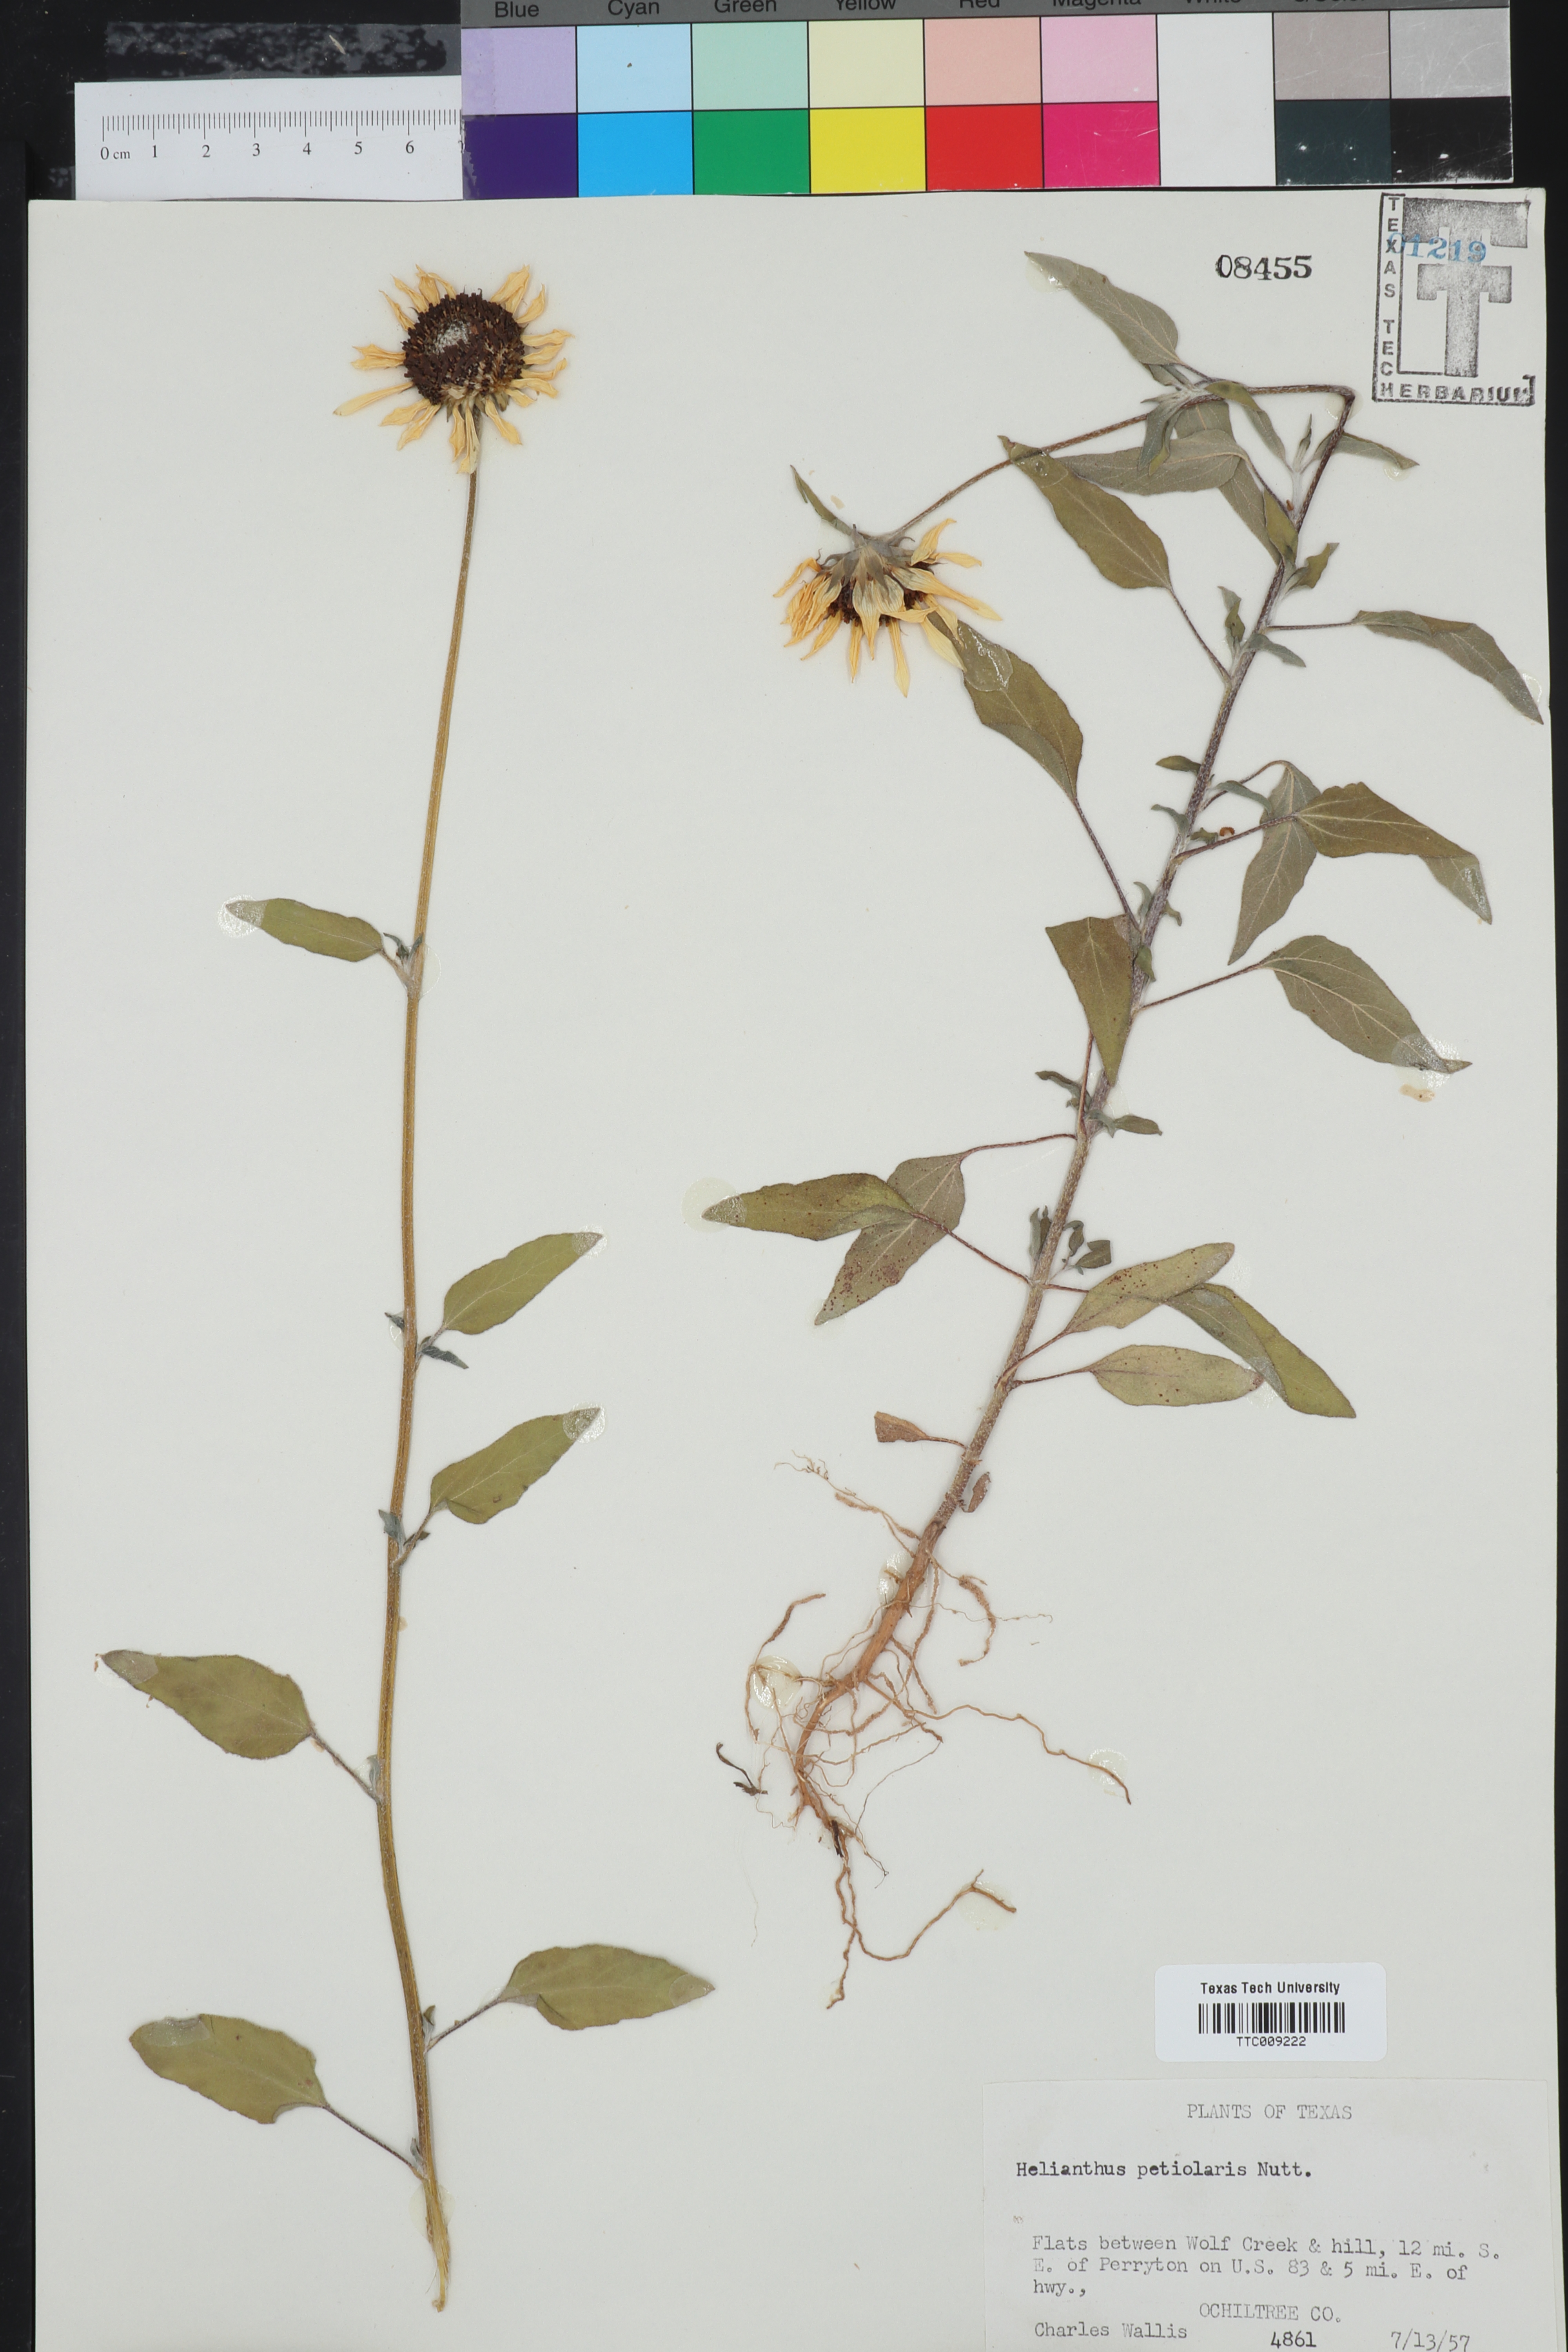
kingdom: Plantae
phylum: Tracheophyta
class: Magnoliopsida
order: Asterales
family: Asteraceae
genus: Helianthus
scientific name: Helianthus petiolaris
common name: Lesser sunflower
